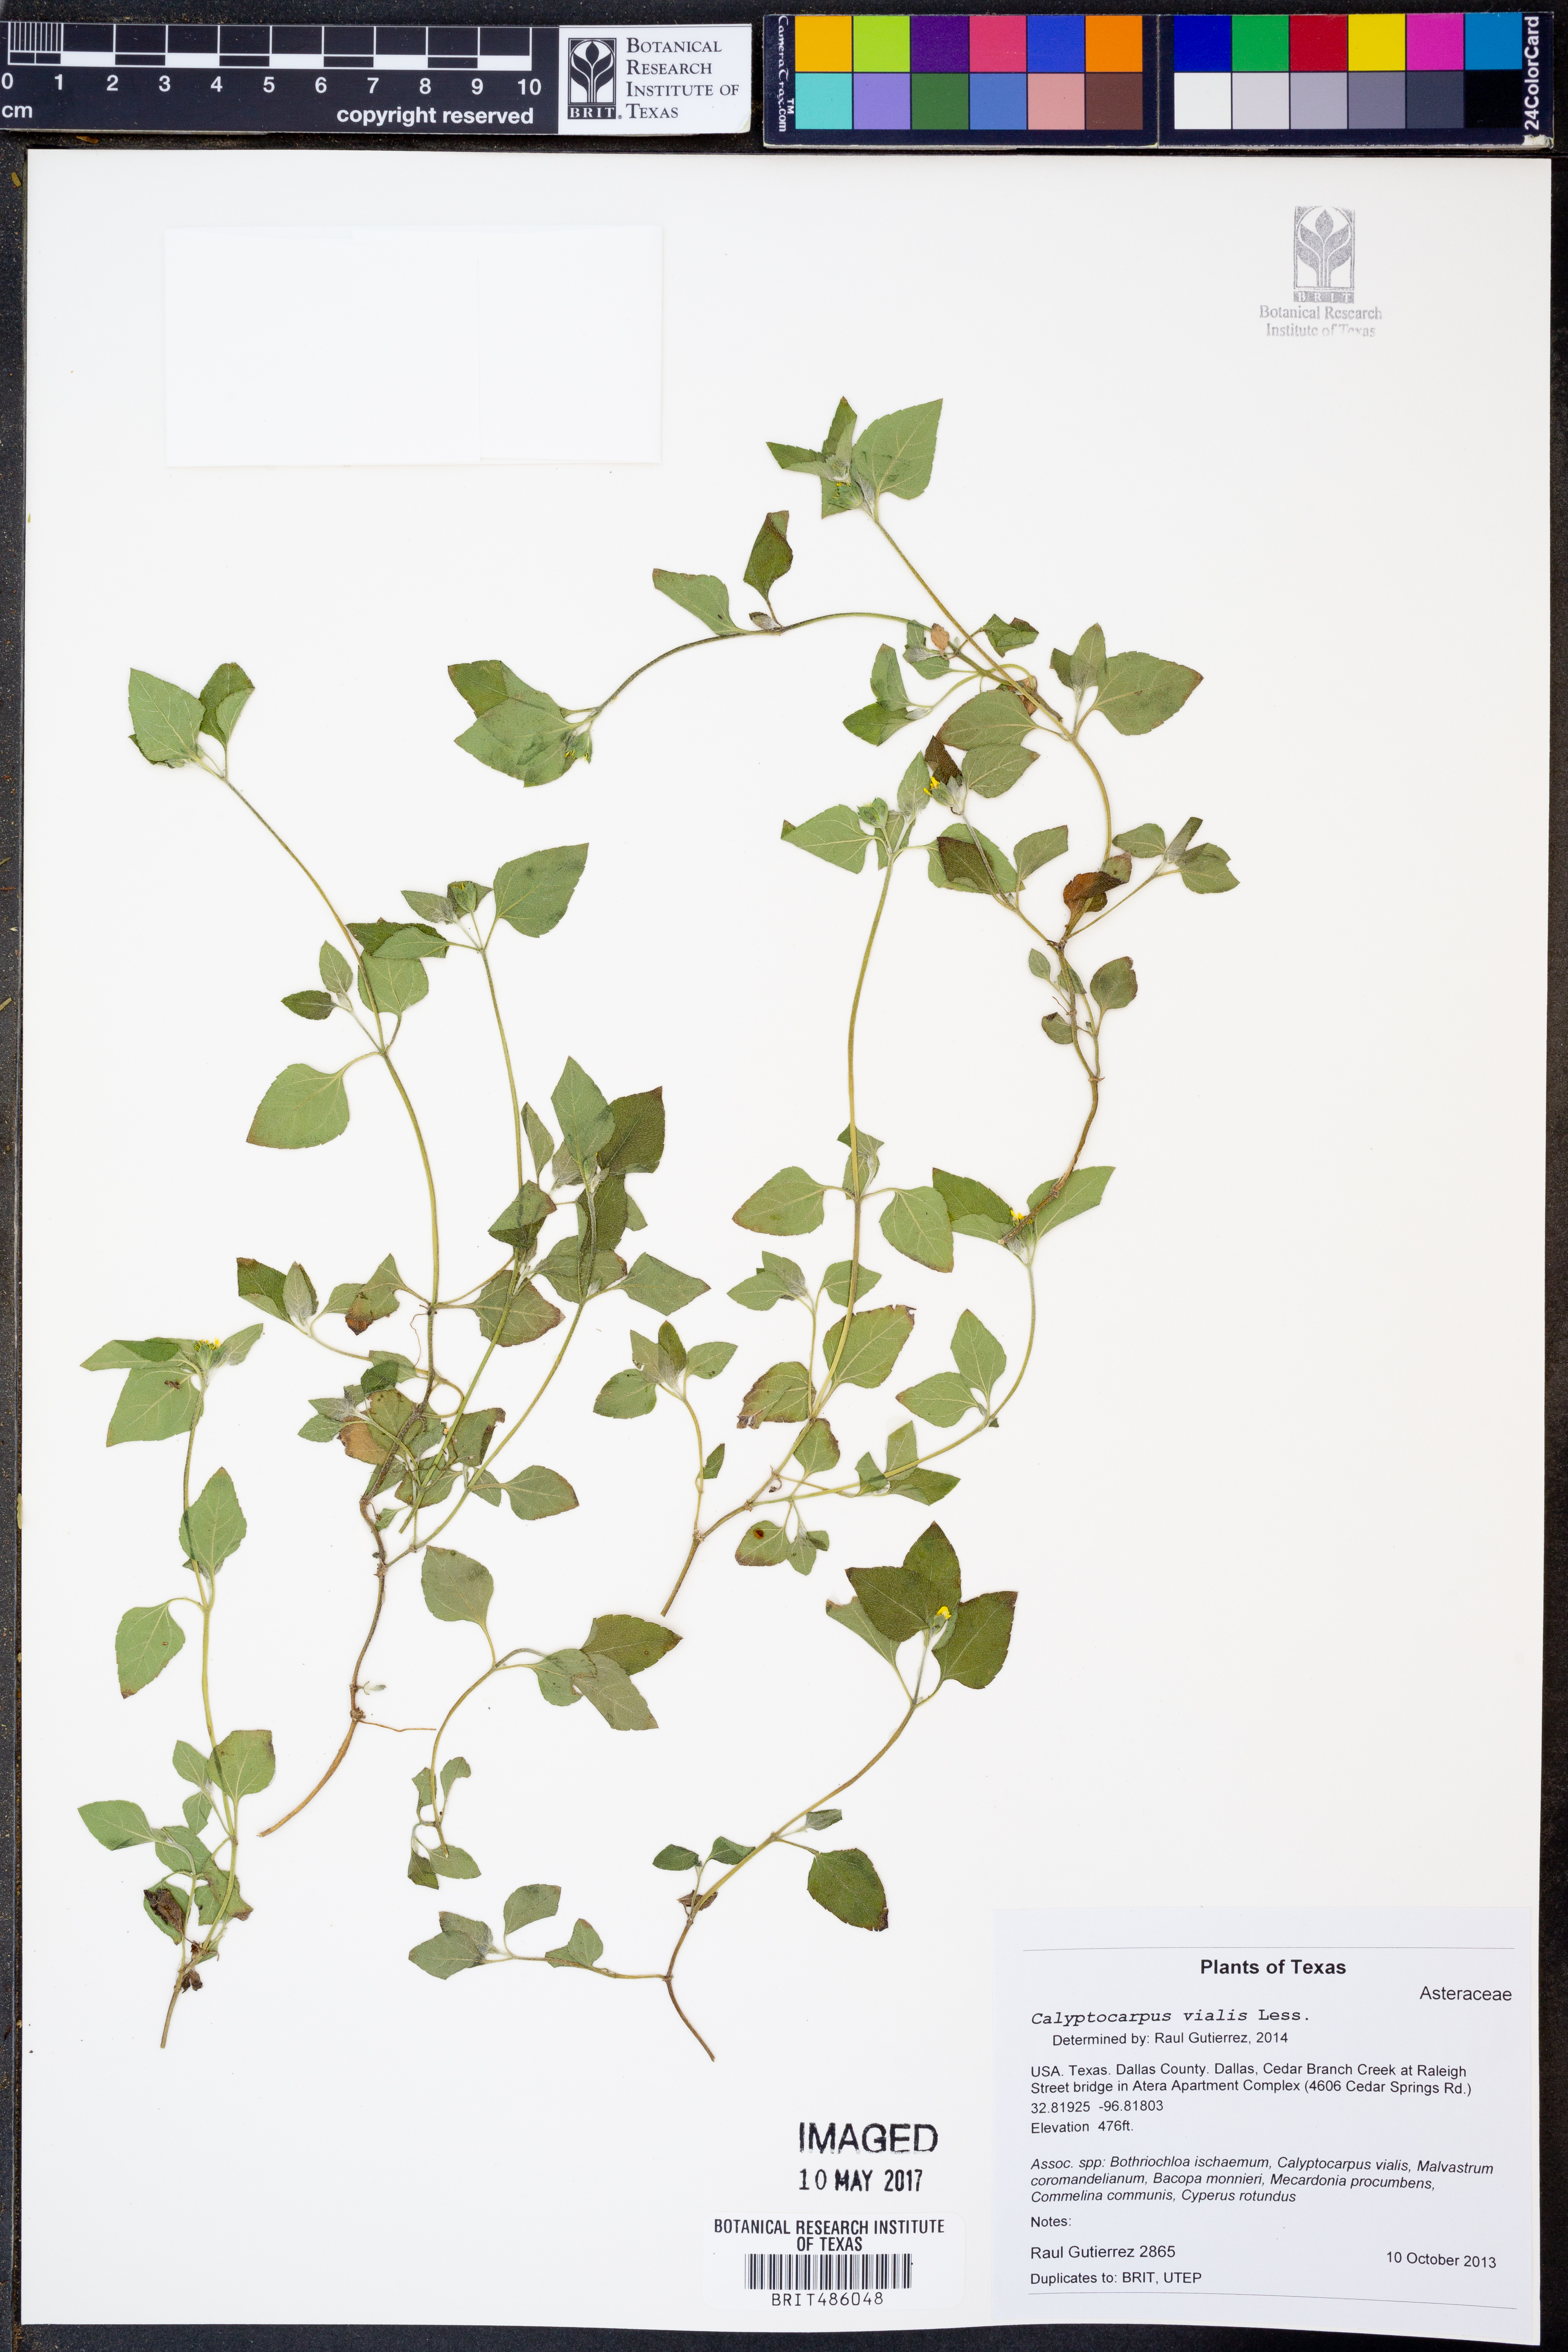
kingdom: Plantae
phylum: Tracheophyta
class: Magnoliopsida
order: Asterales
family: Asteraceae
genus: Calyptocarpus
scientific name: Calyptocarpus vialis
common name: Straggler daisy
